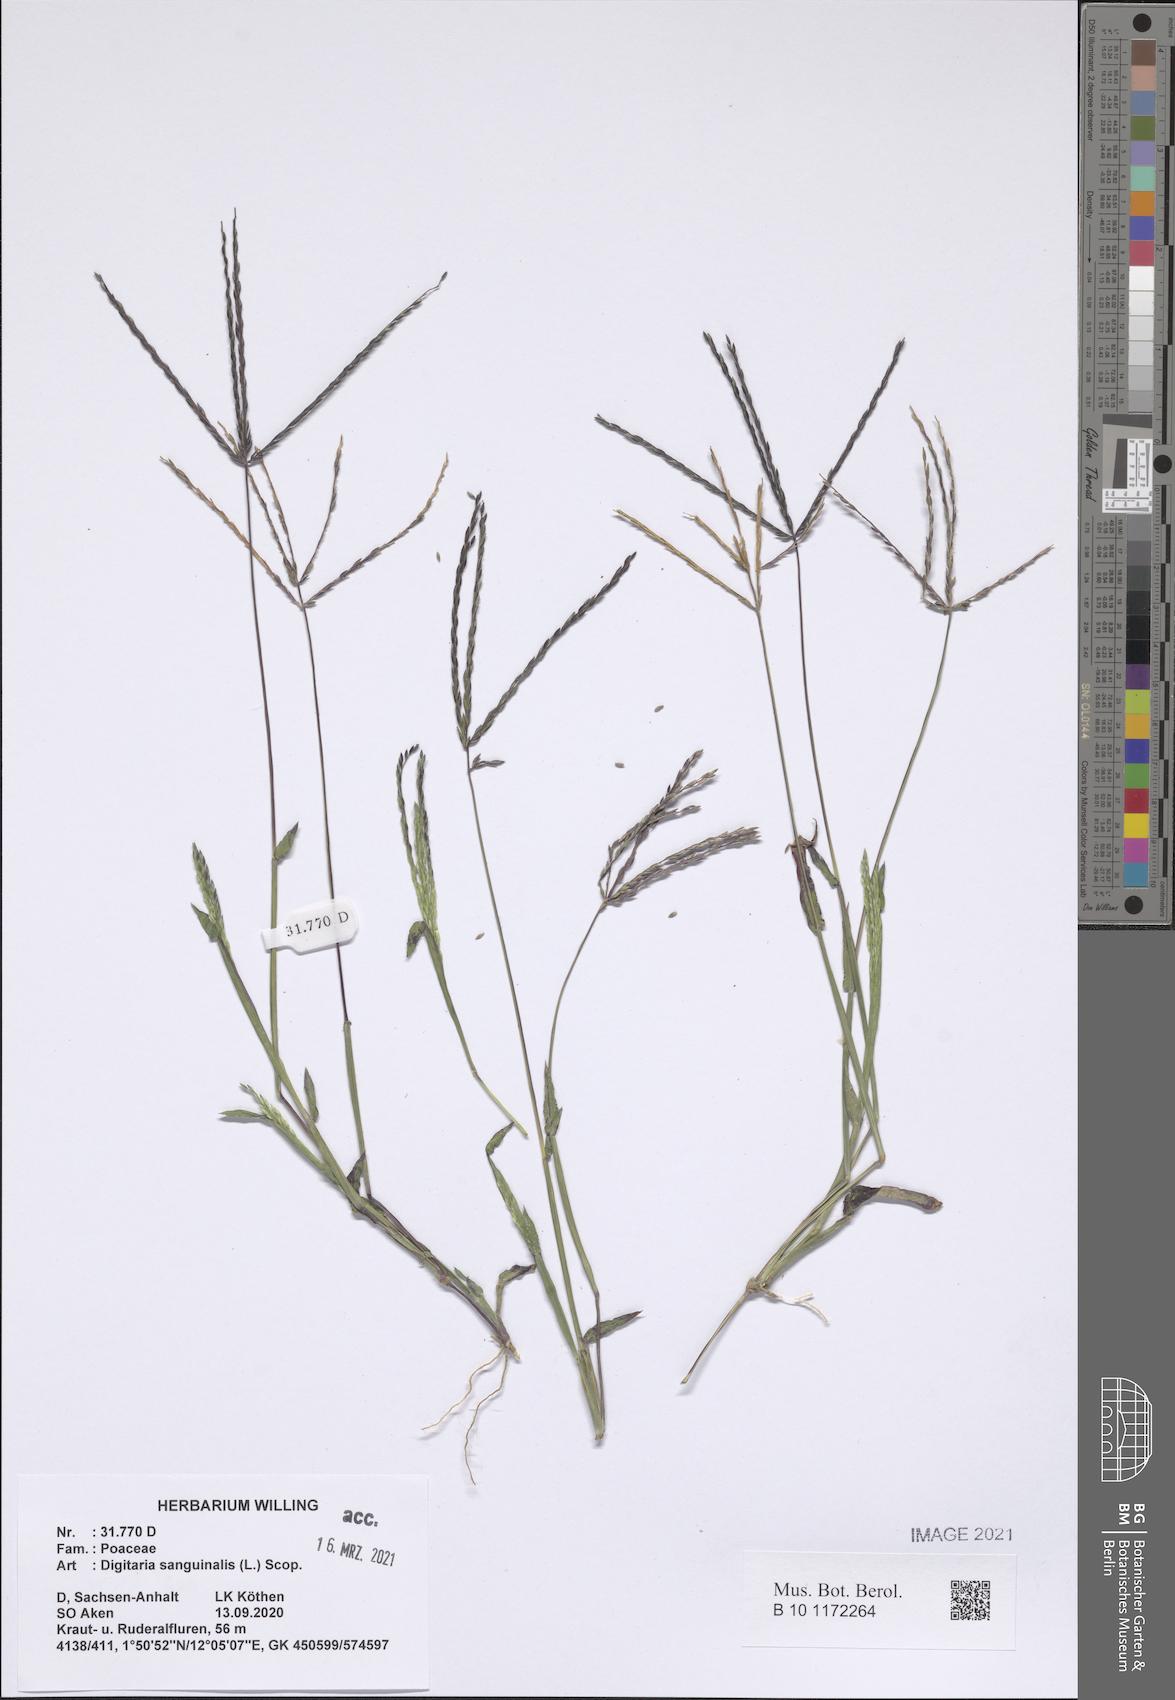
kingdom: Plantae
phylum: Tracheophyta
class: Liliopsida
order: Poales
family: Poaceae
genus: Digitaria
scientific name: Digitaria sanguinalis
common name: Hairy crabgrass
